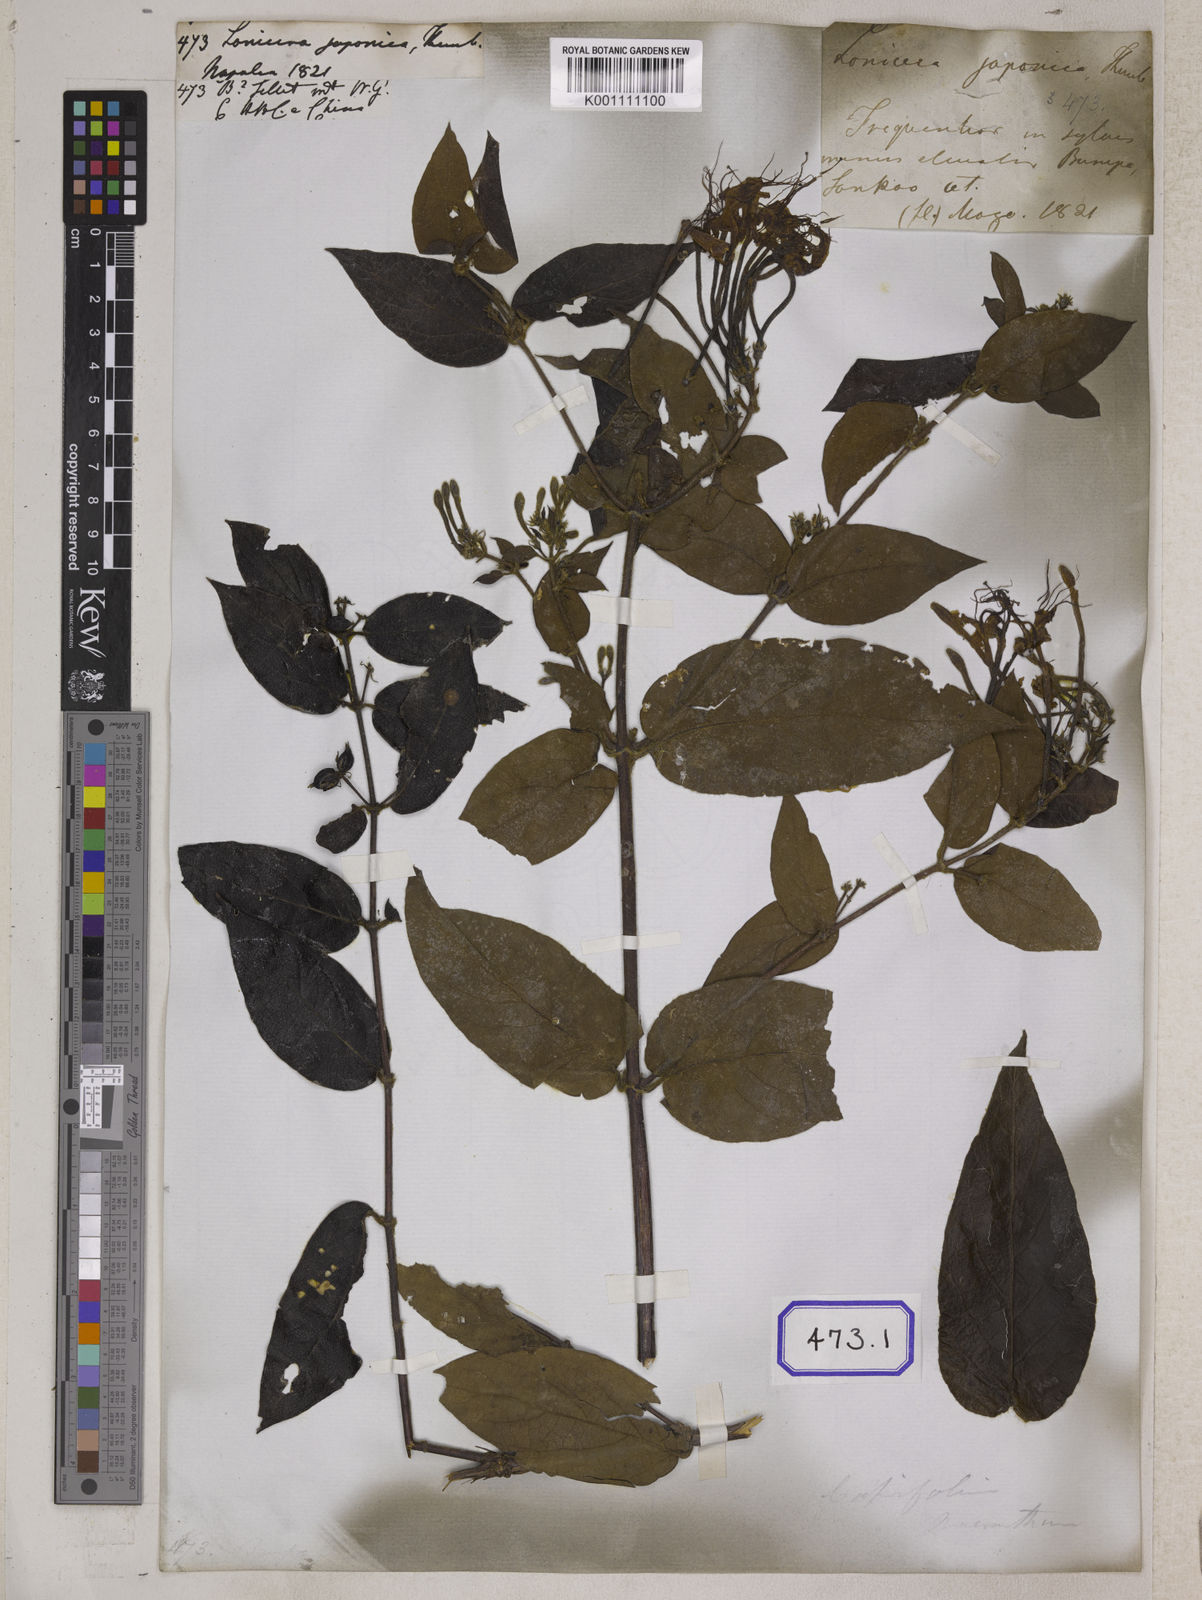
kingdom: Plantae
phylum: Tracheophyta
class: Magnoliopsida
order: Dipsacales
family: Caprifoliaceae
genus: Lonicera
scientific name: Lonicera japonica
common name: Japanese honeysuckle
